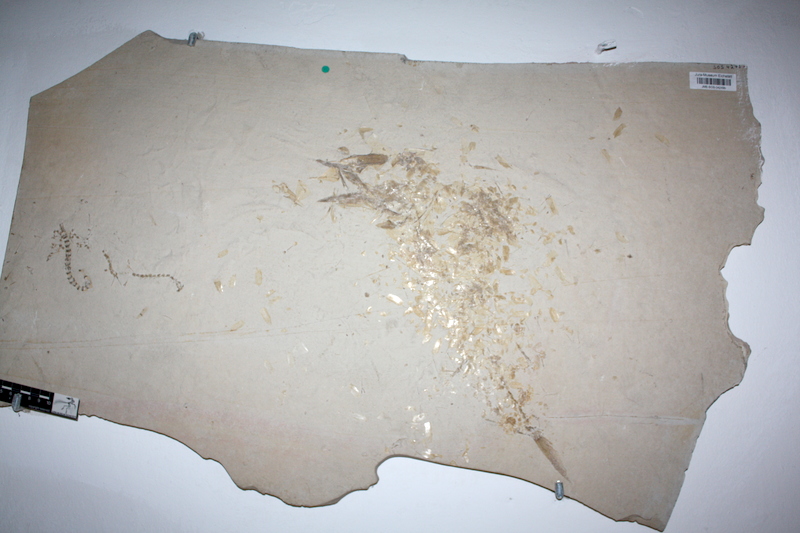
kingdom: Animalia
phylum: Chordata
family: Aspidorhynchidae
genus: Aspidorhynchus
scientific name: Aspidorhynchus acutirostris
